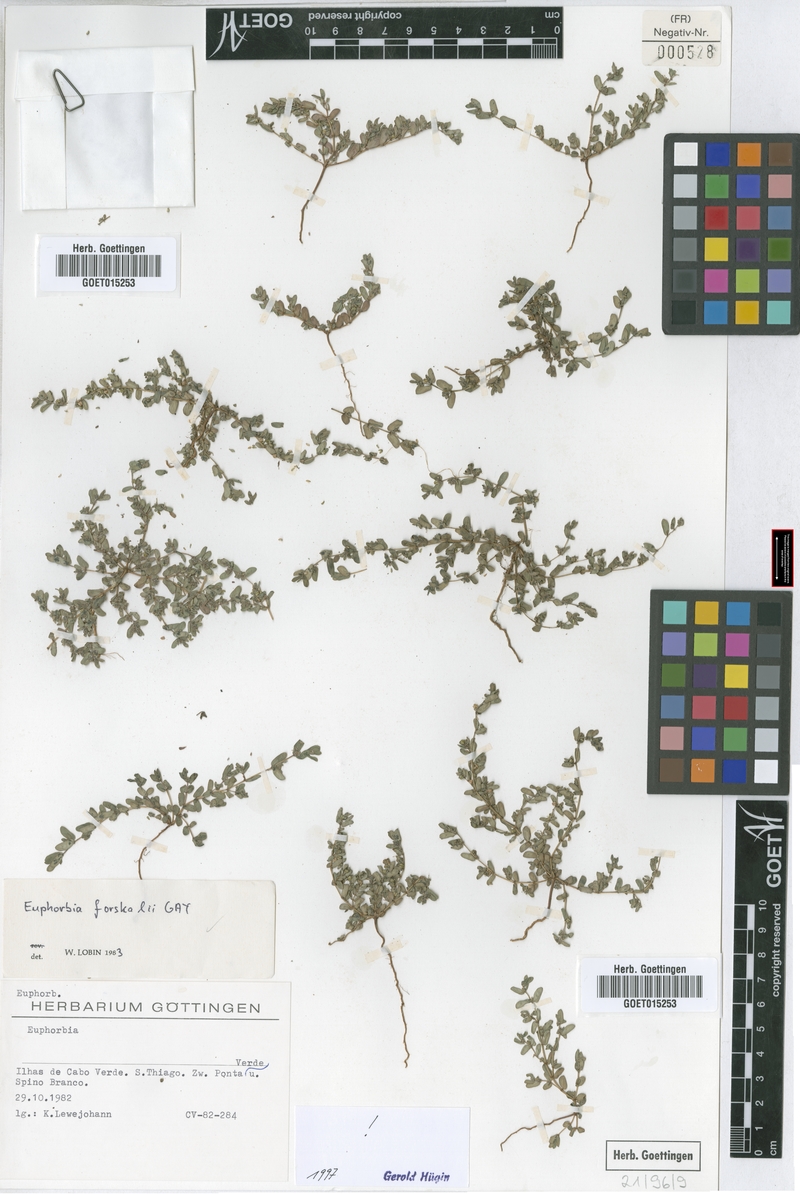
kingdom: Plantae
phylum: Tracheophyta
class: Magnoliopsida
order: Malpighiales
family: Euphorbiaceae
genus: Euphorbia
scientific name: Euphorbia forsskalii
